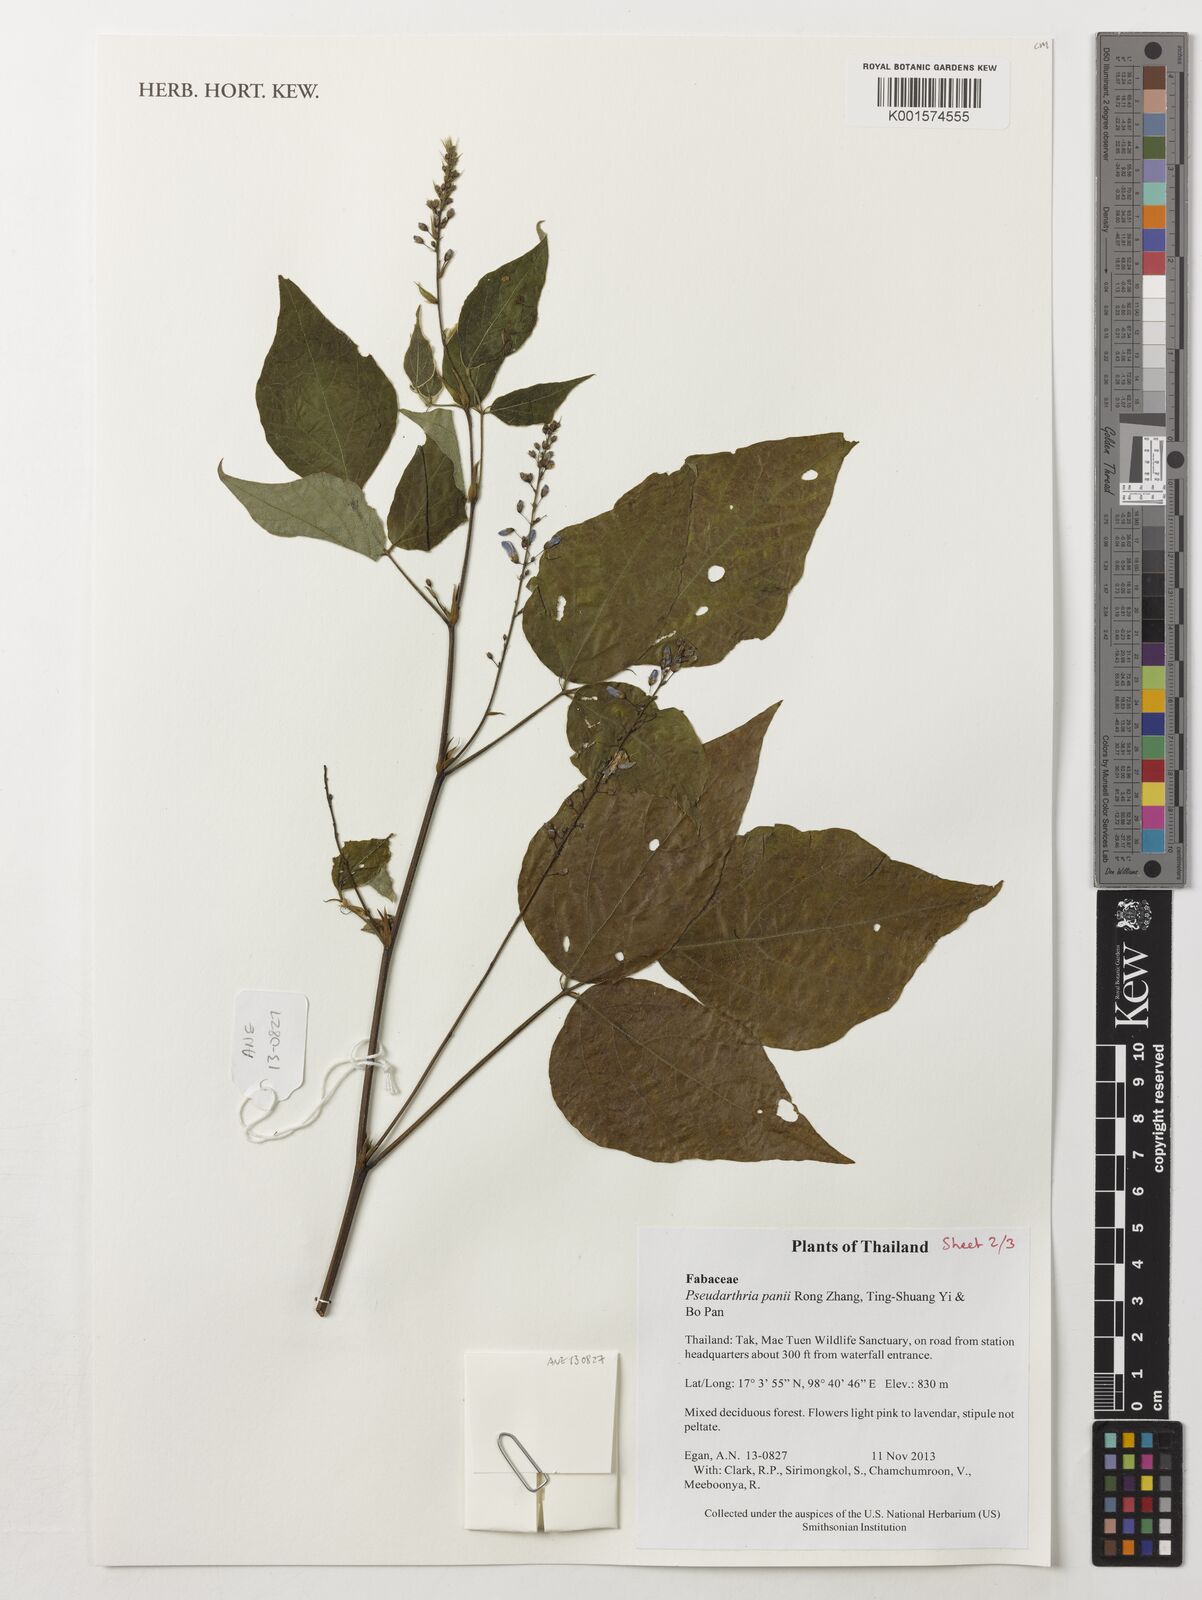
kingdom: Plantae
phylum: Tracheophyta
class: Magnoliopsida
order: Fabales
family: Fabaceae
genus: Pseudarthria
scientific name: Pseudarthria panii bis
